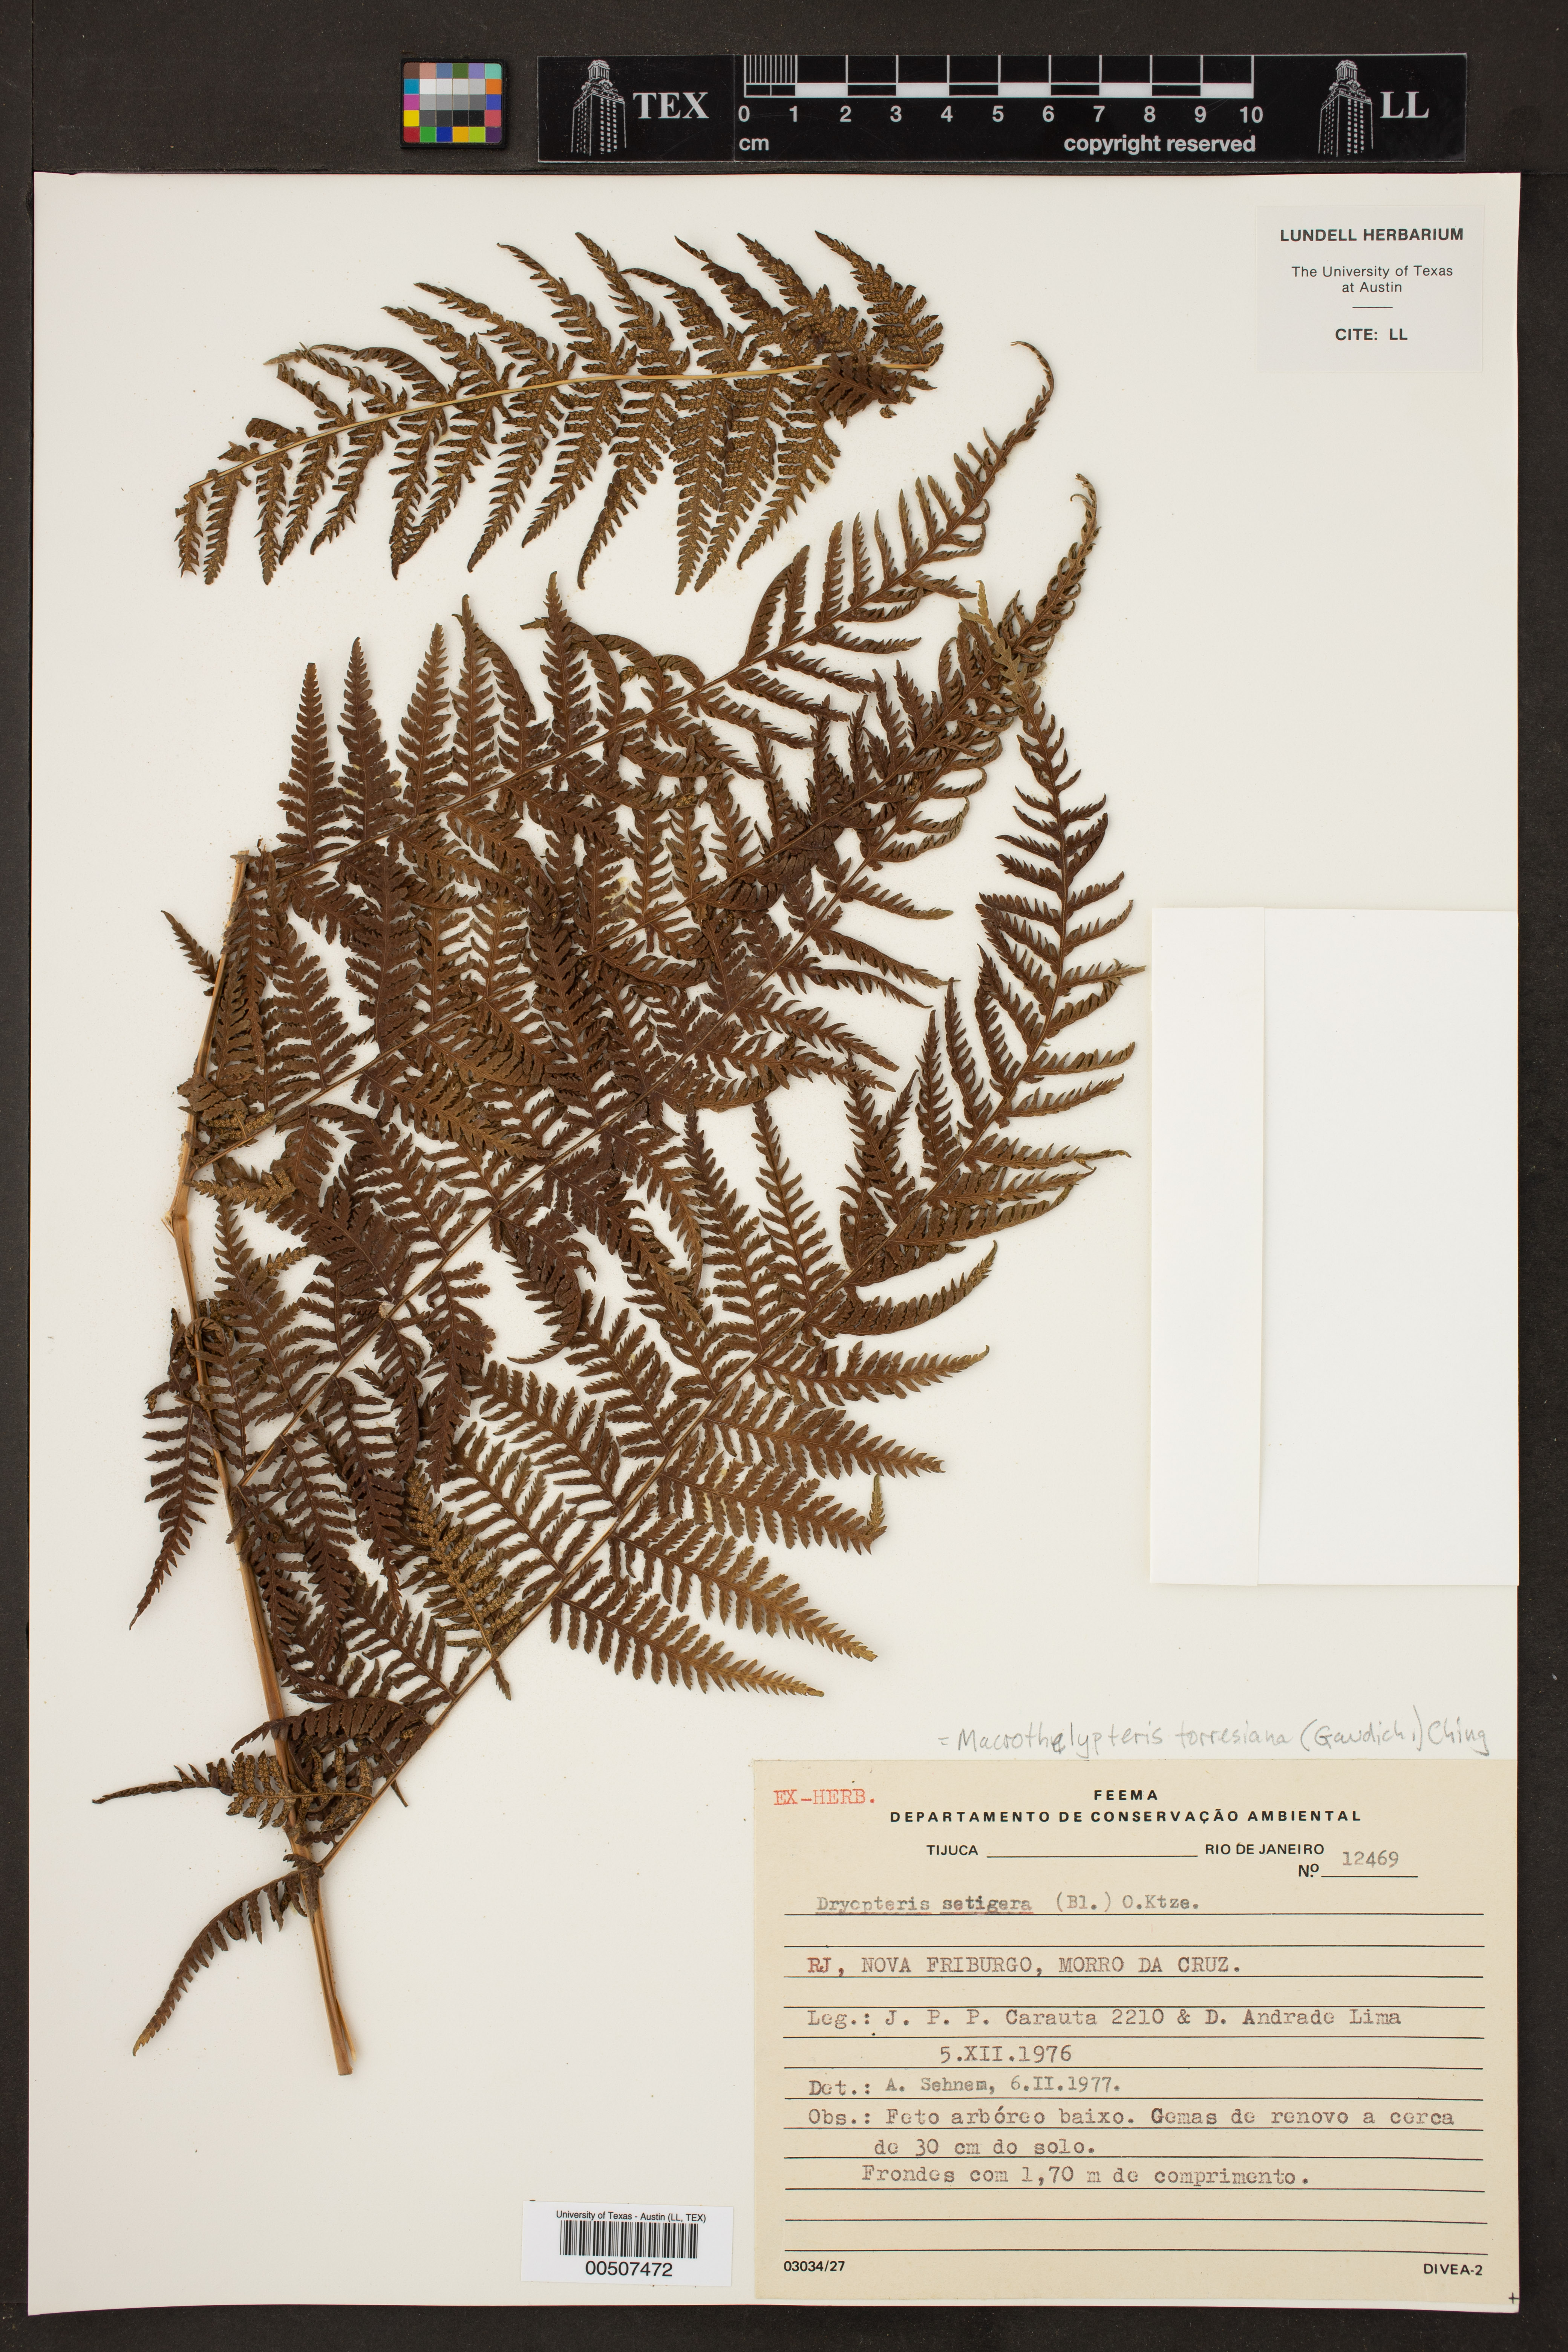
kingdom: Plantae
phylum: Tracheophyta
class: Polypodiopsida
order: Polypodiales
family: Thelypteridaceae
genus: Macrothelypteris
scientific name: Macrothelypteris torresiana
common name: Swordfern
